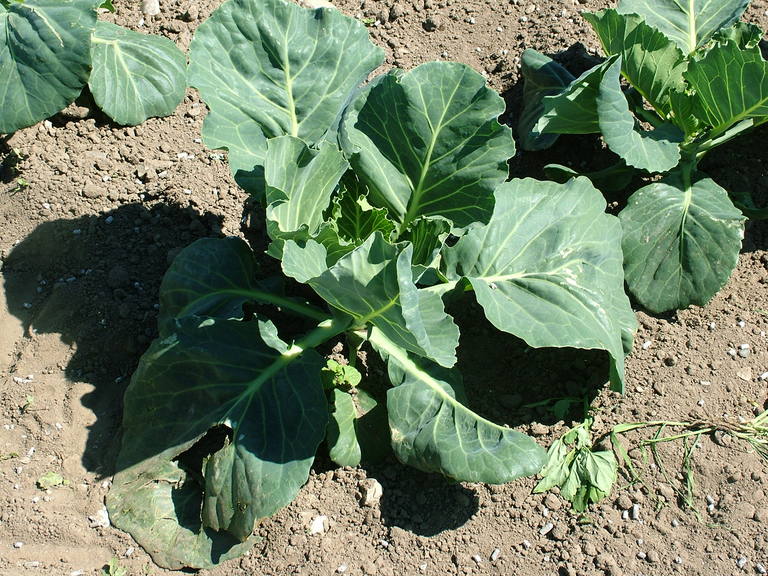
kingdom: Plantae
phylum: Tracheophyta
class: Magnoliopsida
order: Brassicales
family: Brassicaceae
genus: Brassica
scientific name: Brassica oleracea
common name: Cabbage
